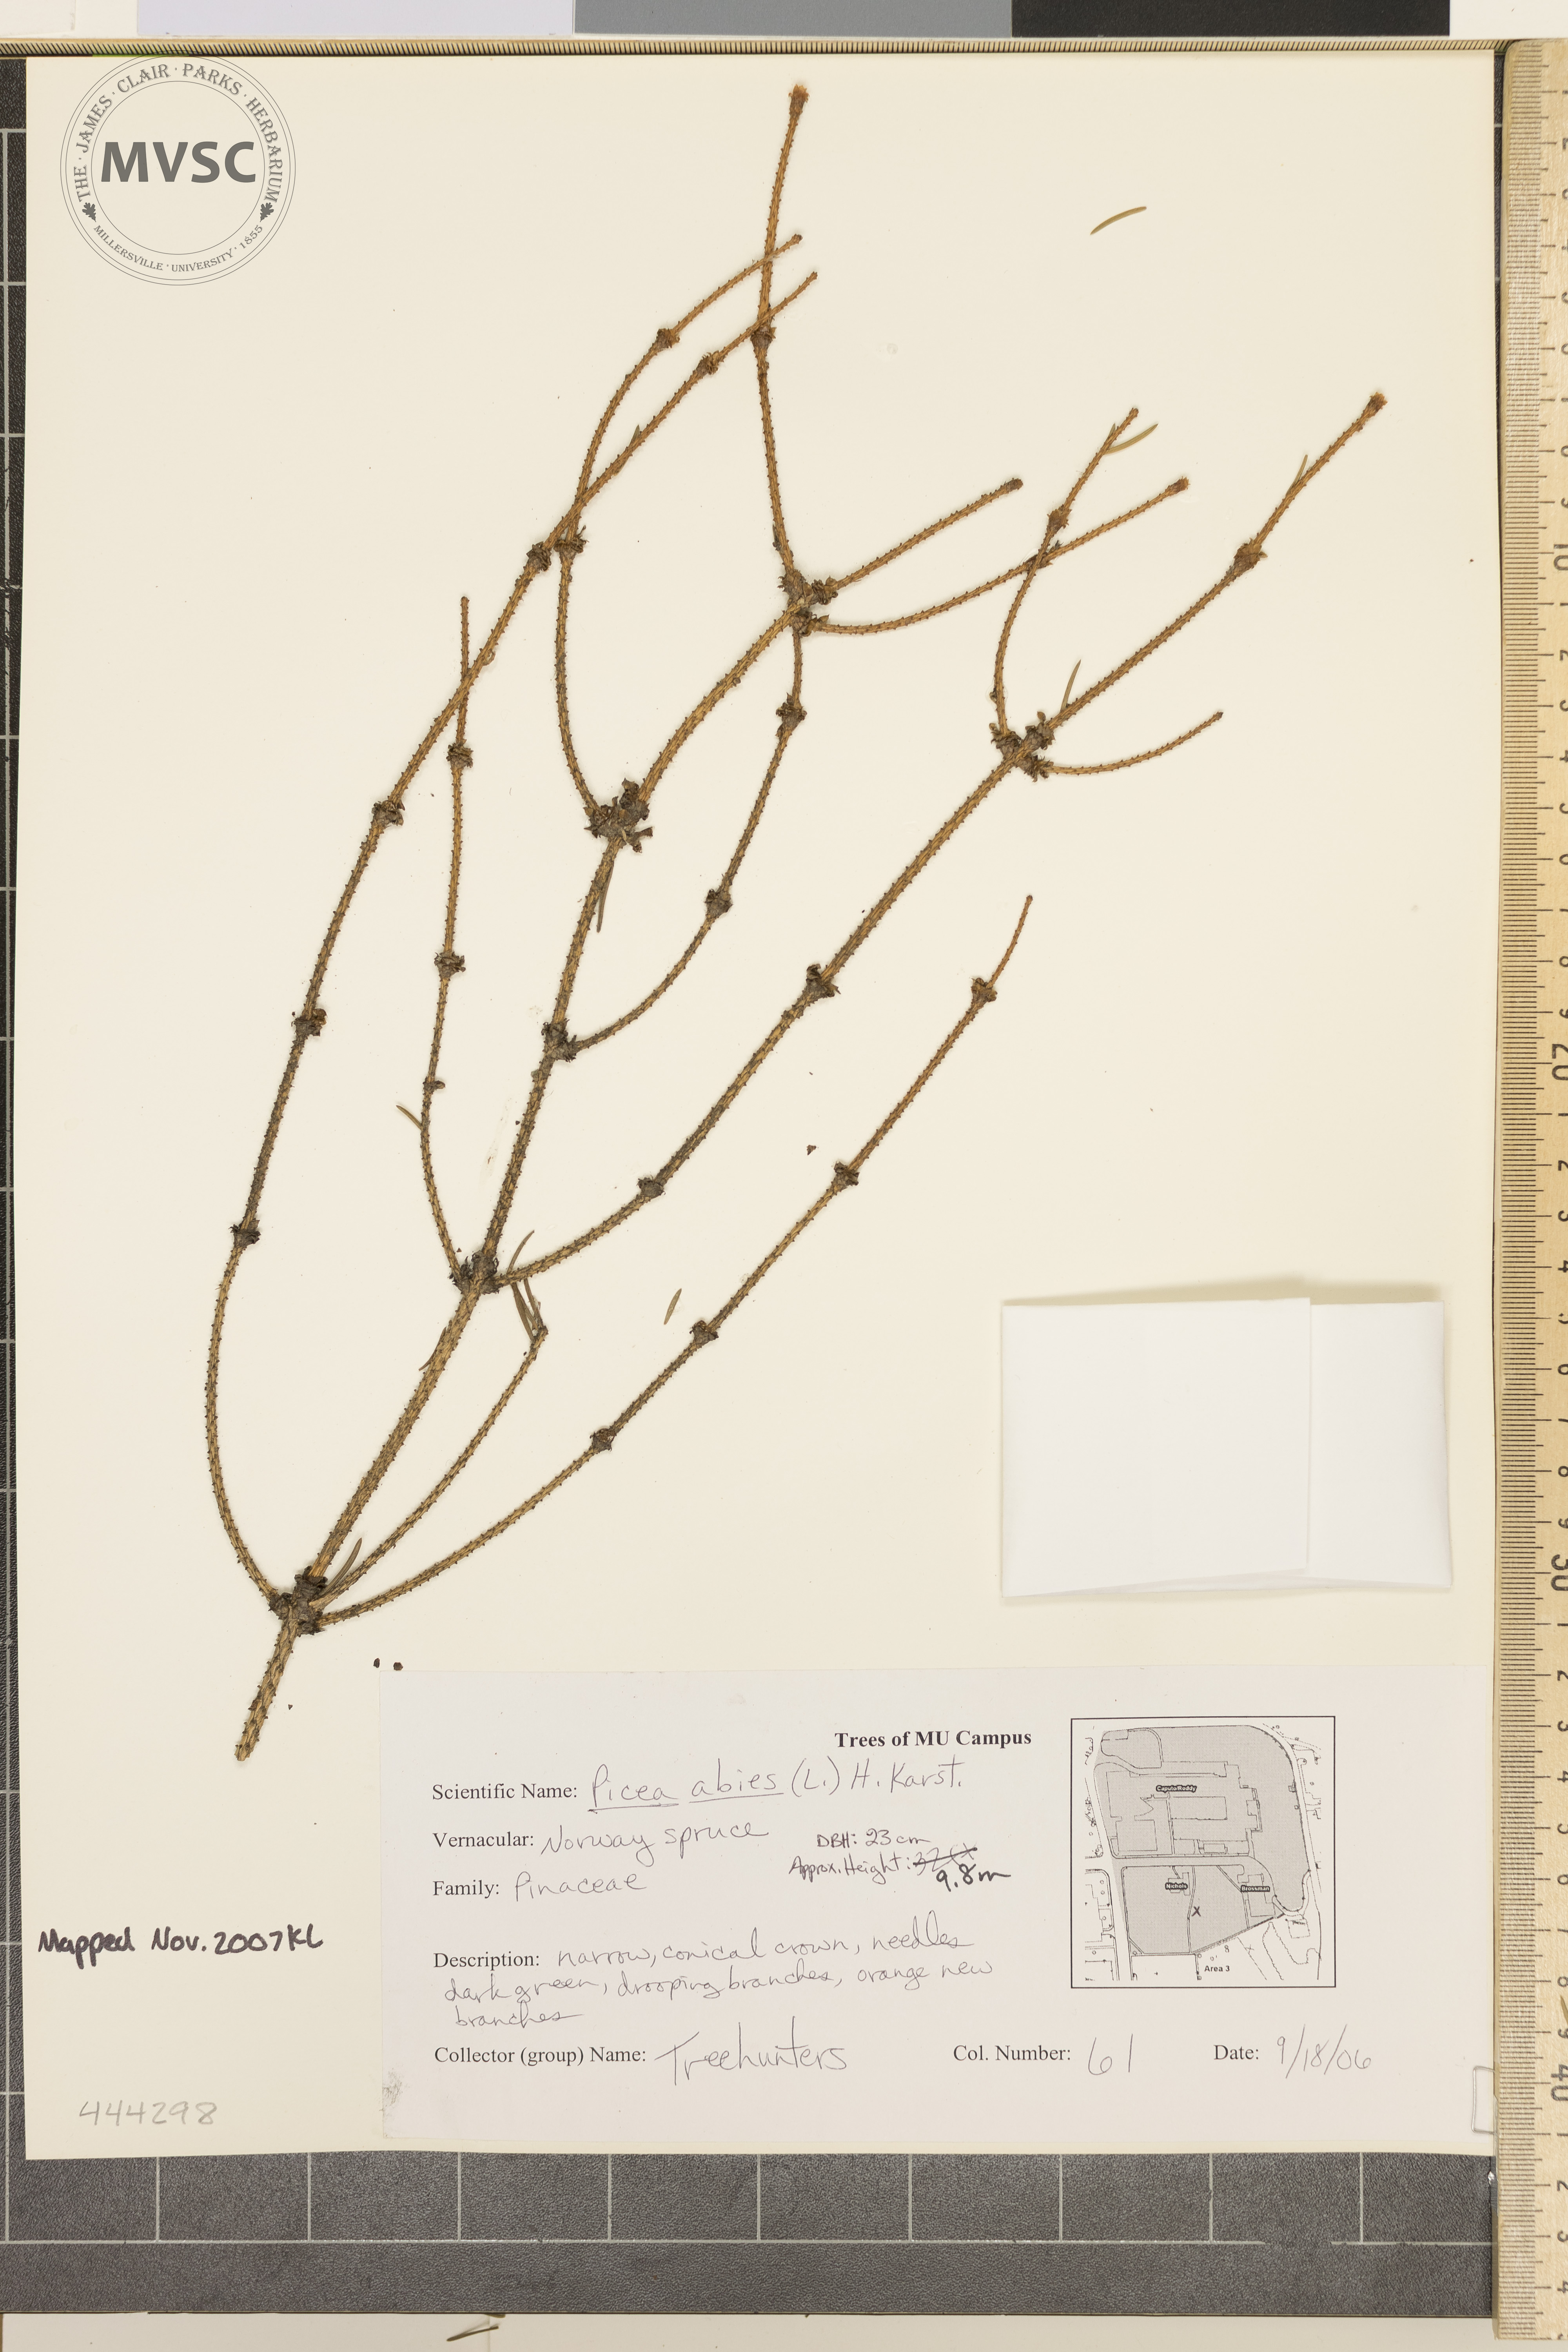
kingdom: Plantae
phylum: Tracheophyta
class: Pinopsida
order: Pinales
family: Pinaceae
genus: Picea
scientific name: Picea abies
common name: Norway Spruce
